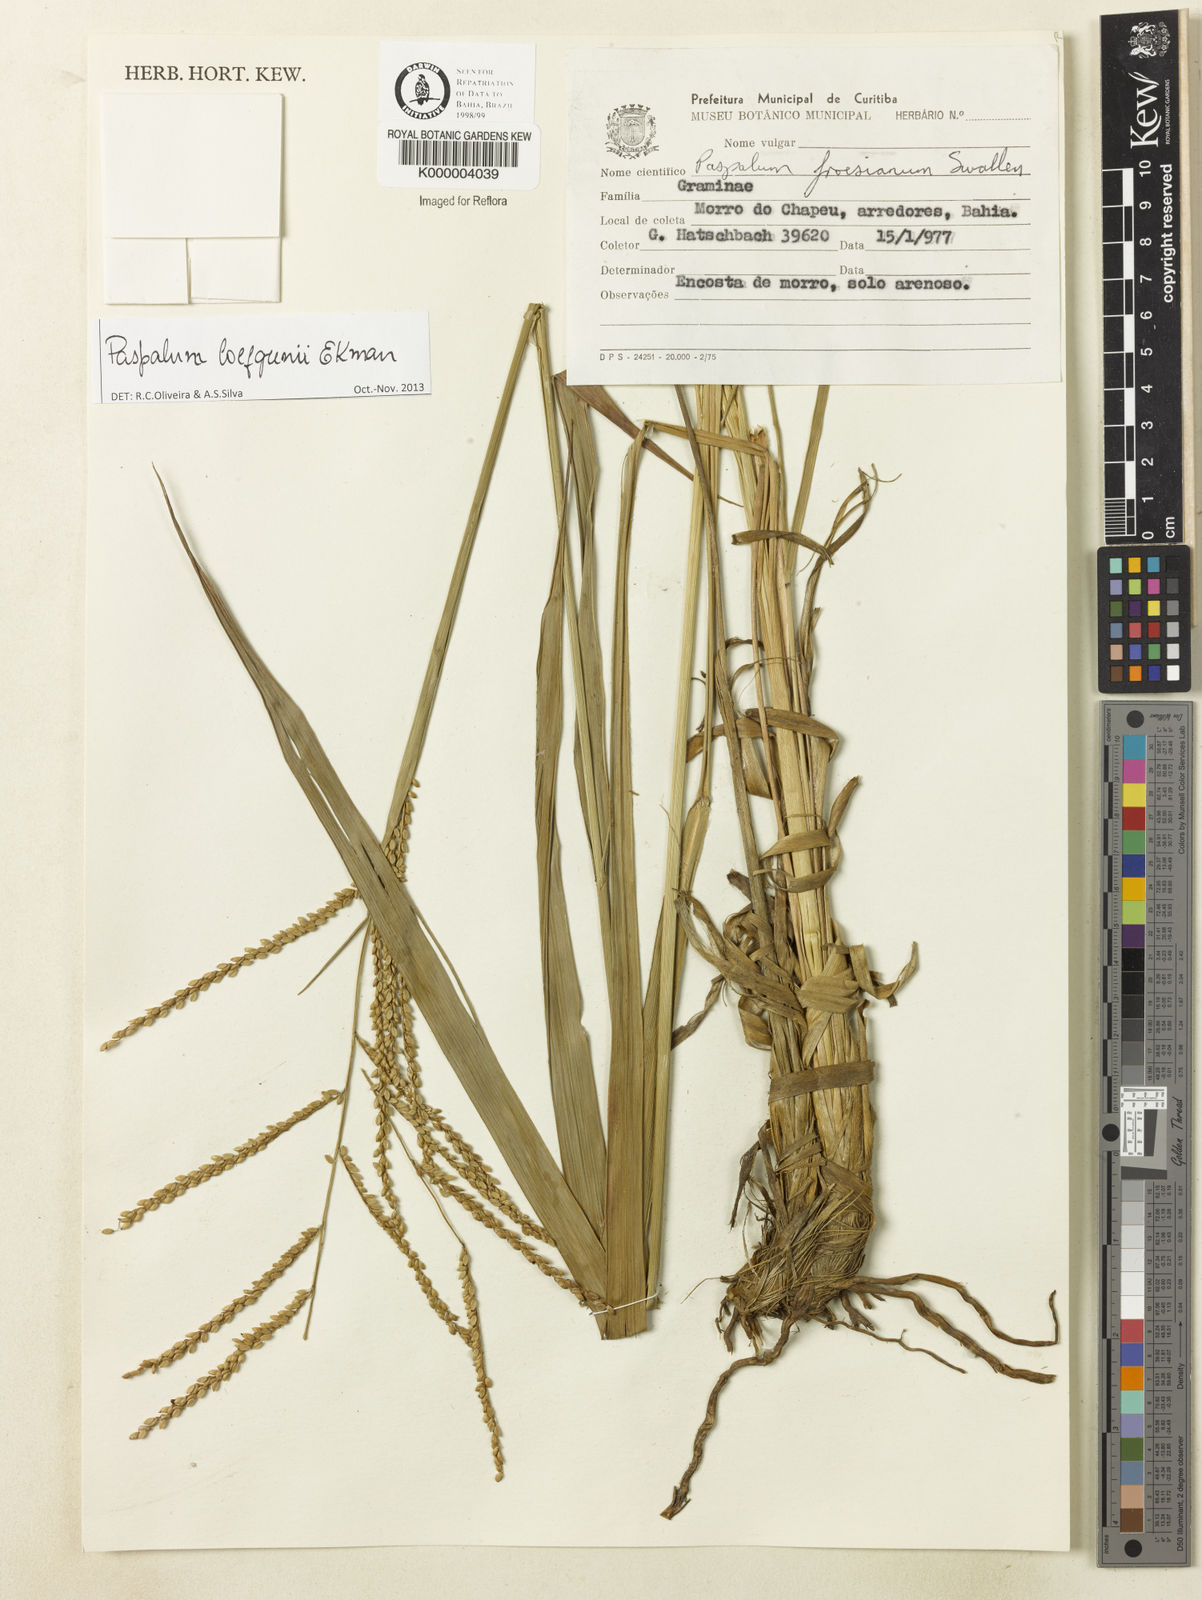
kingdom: Plantae
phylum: Tracheophyta
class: Liliopsida
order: Poales
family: Poaceae
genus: Paspalum
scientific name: Paspalum loefgrenii
